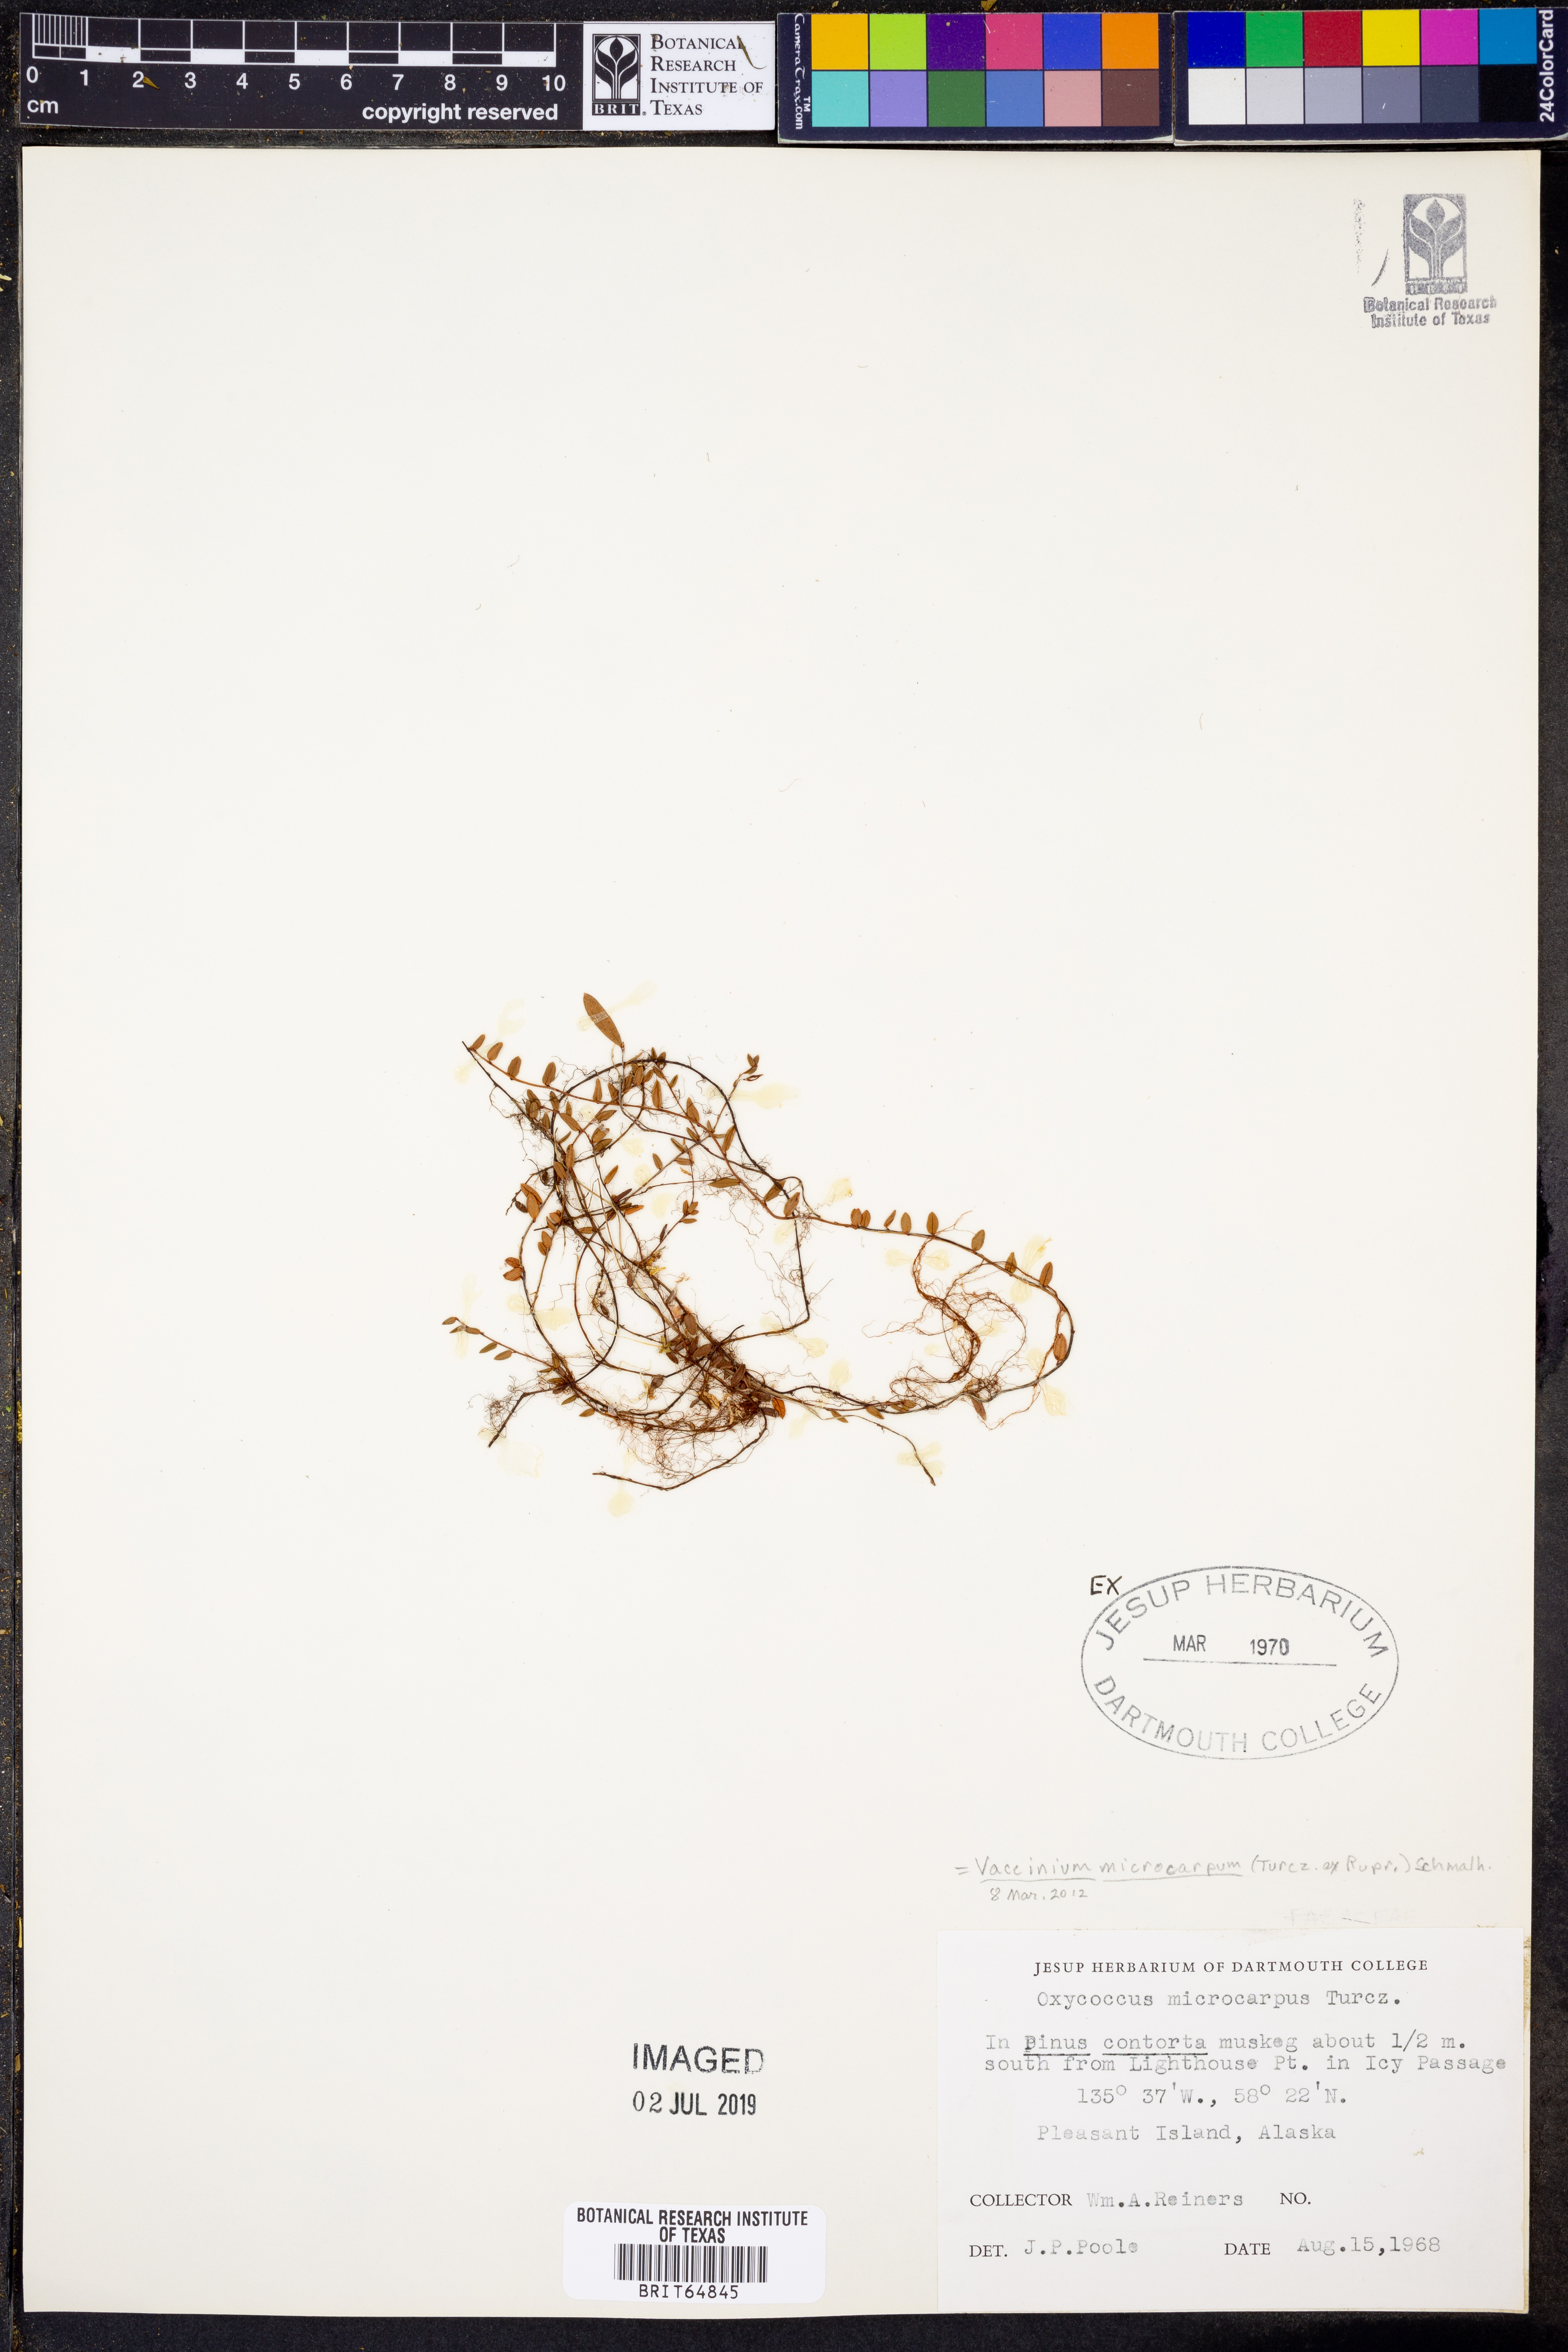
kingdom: Plantae
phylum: Tracheophyta
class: Magnoliopsida
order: Ericales
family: Ericaceae
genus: Vaccinium
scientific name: Vaccinium microcarpum
